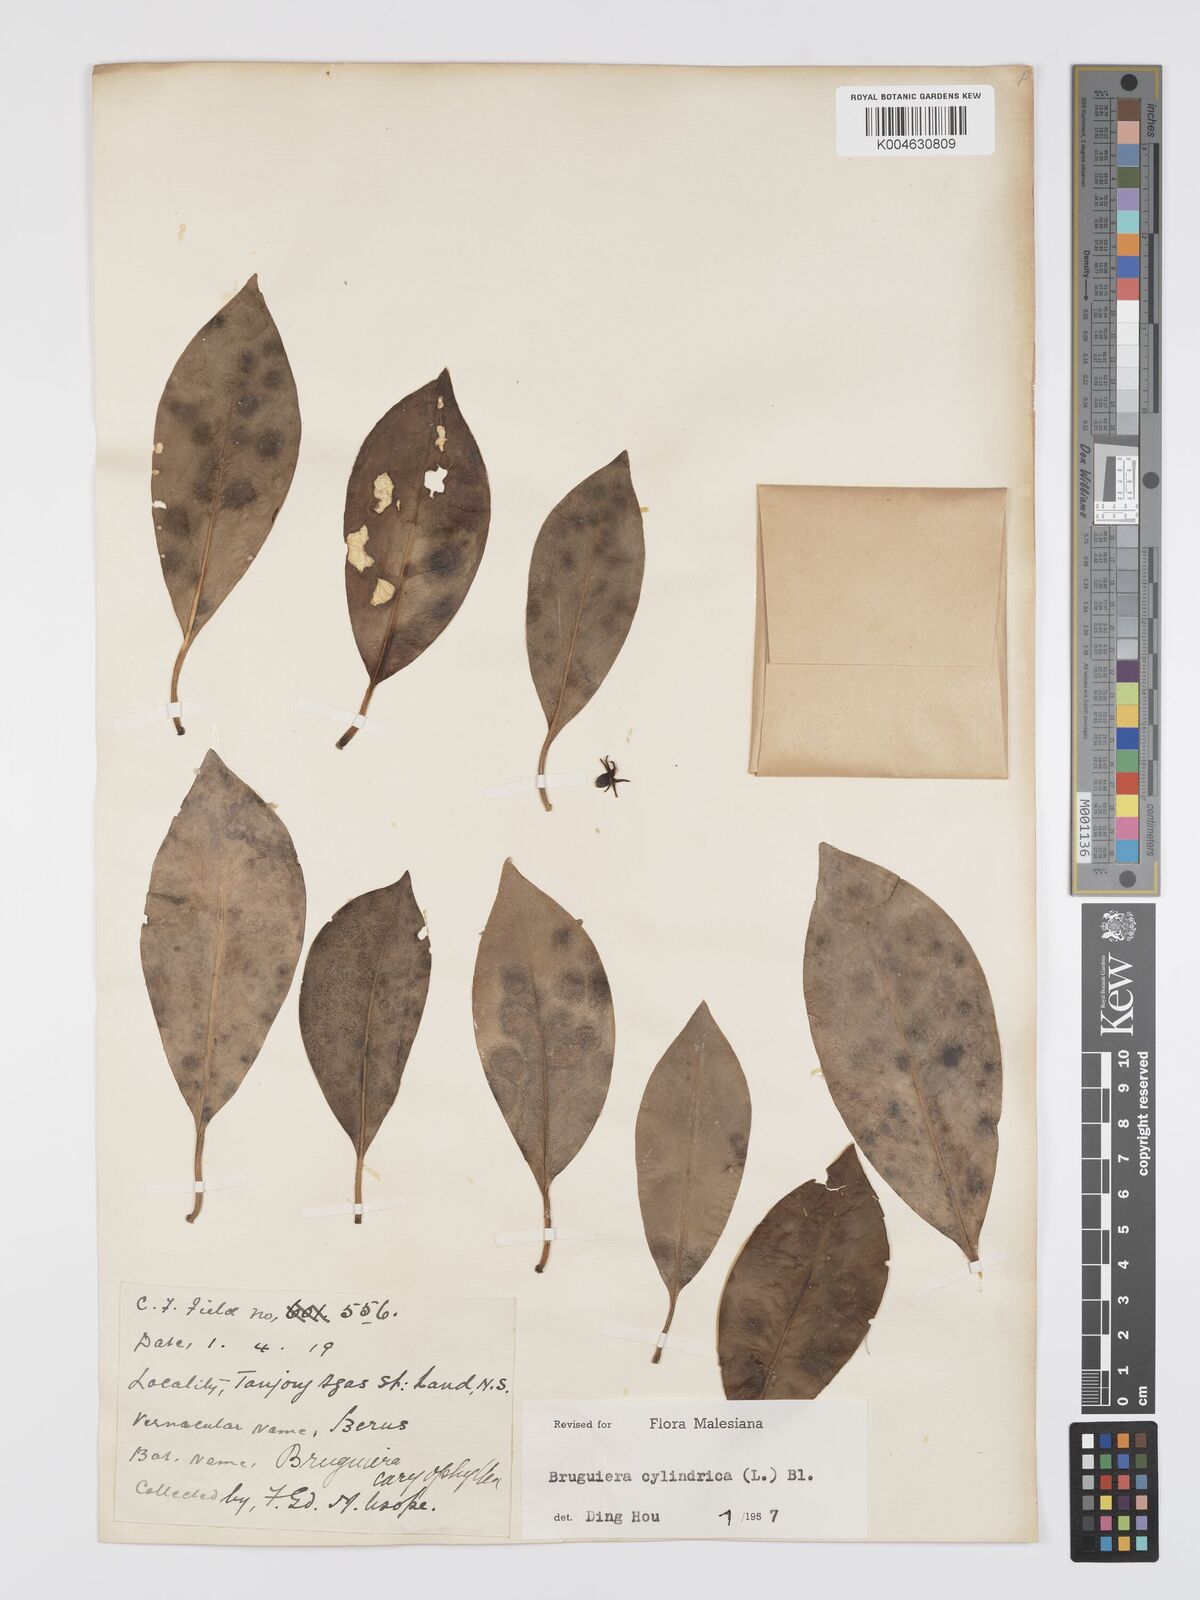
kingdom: Plantae
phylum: Tracheophyta
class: Magnoliopsida
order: Malpighiales
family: Rhizophoraceae
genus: Bruguiera
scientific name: Bruguiera cylindrica
